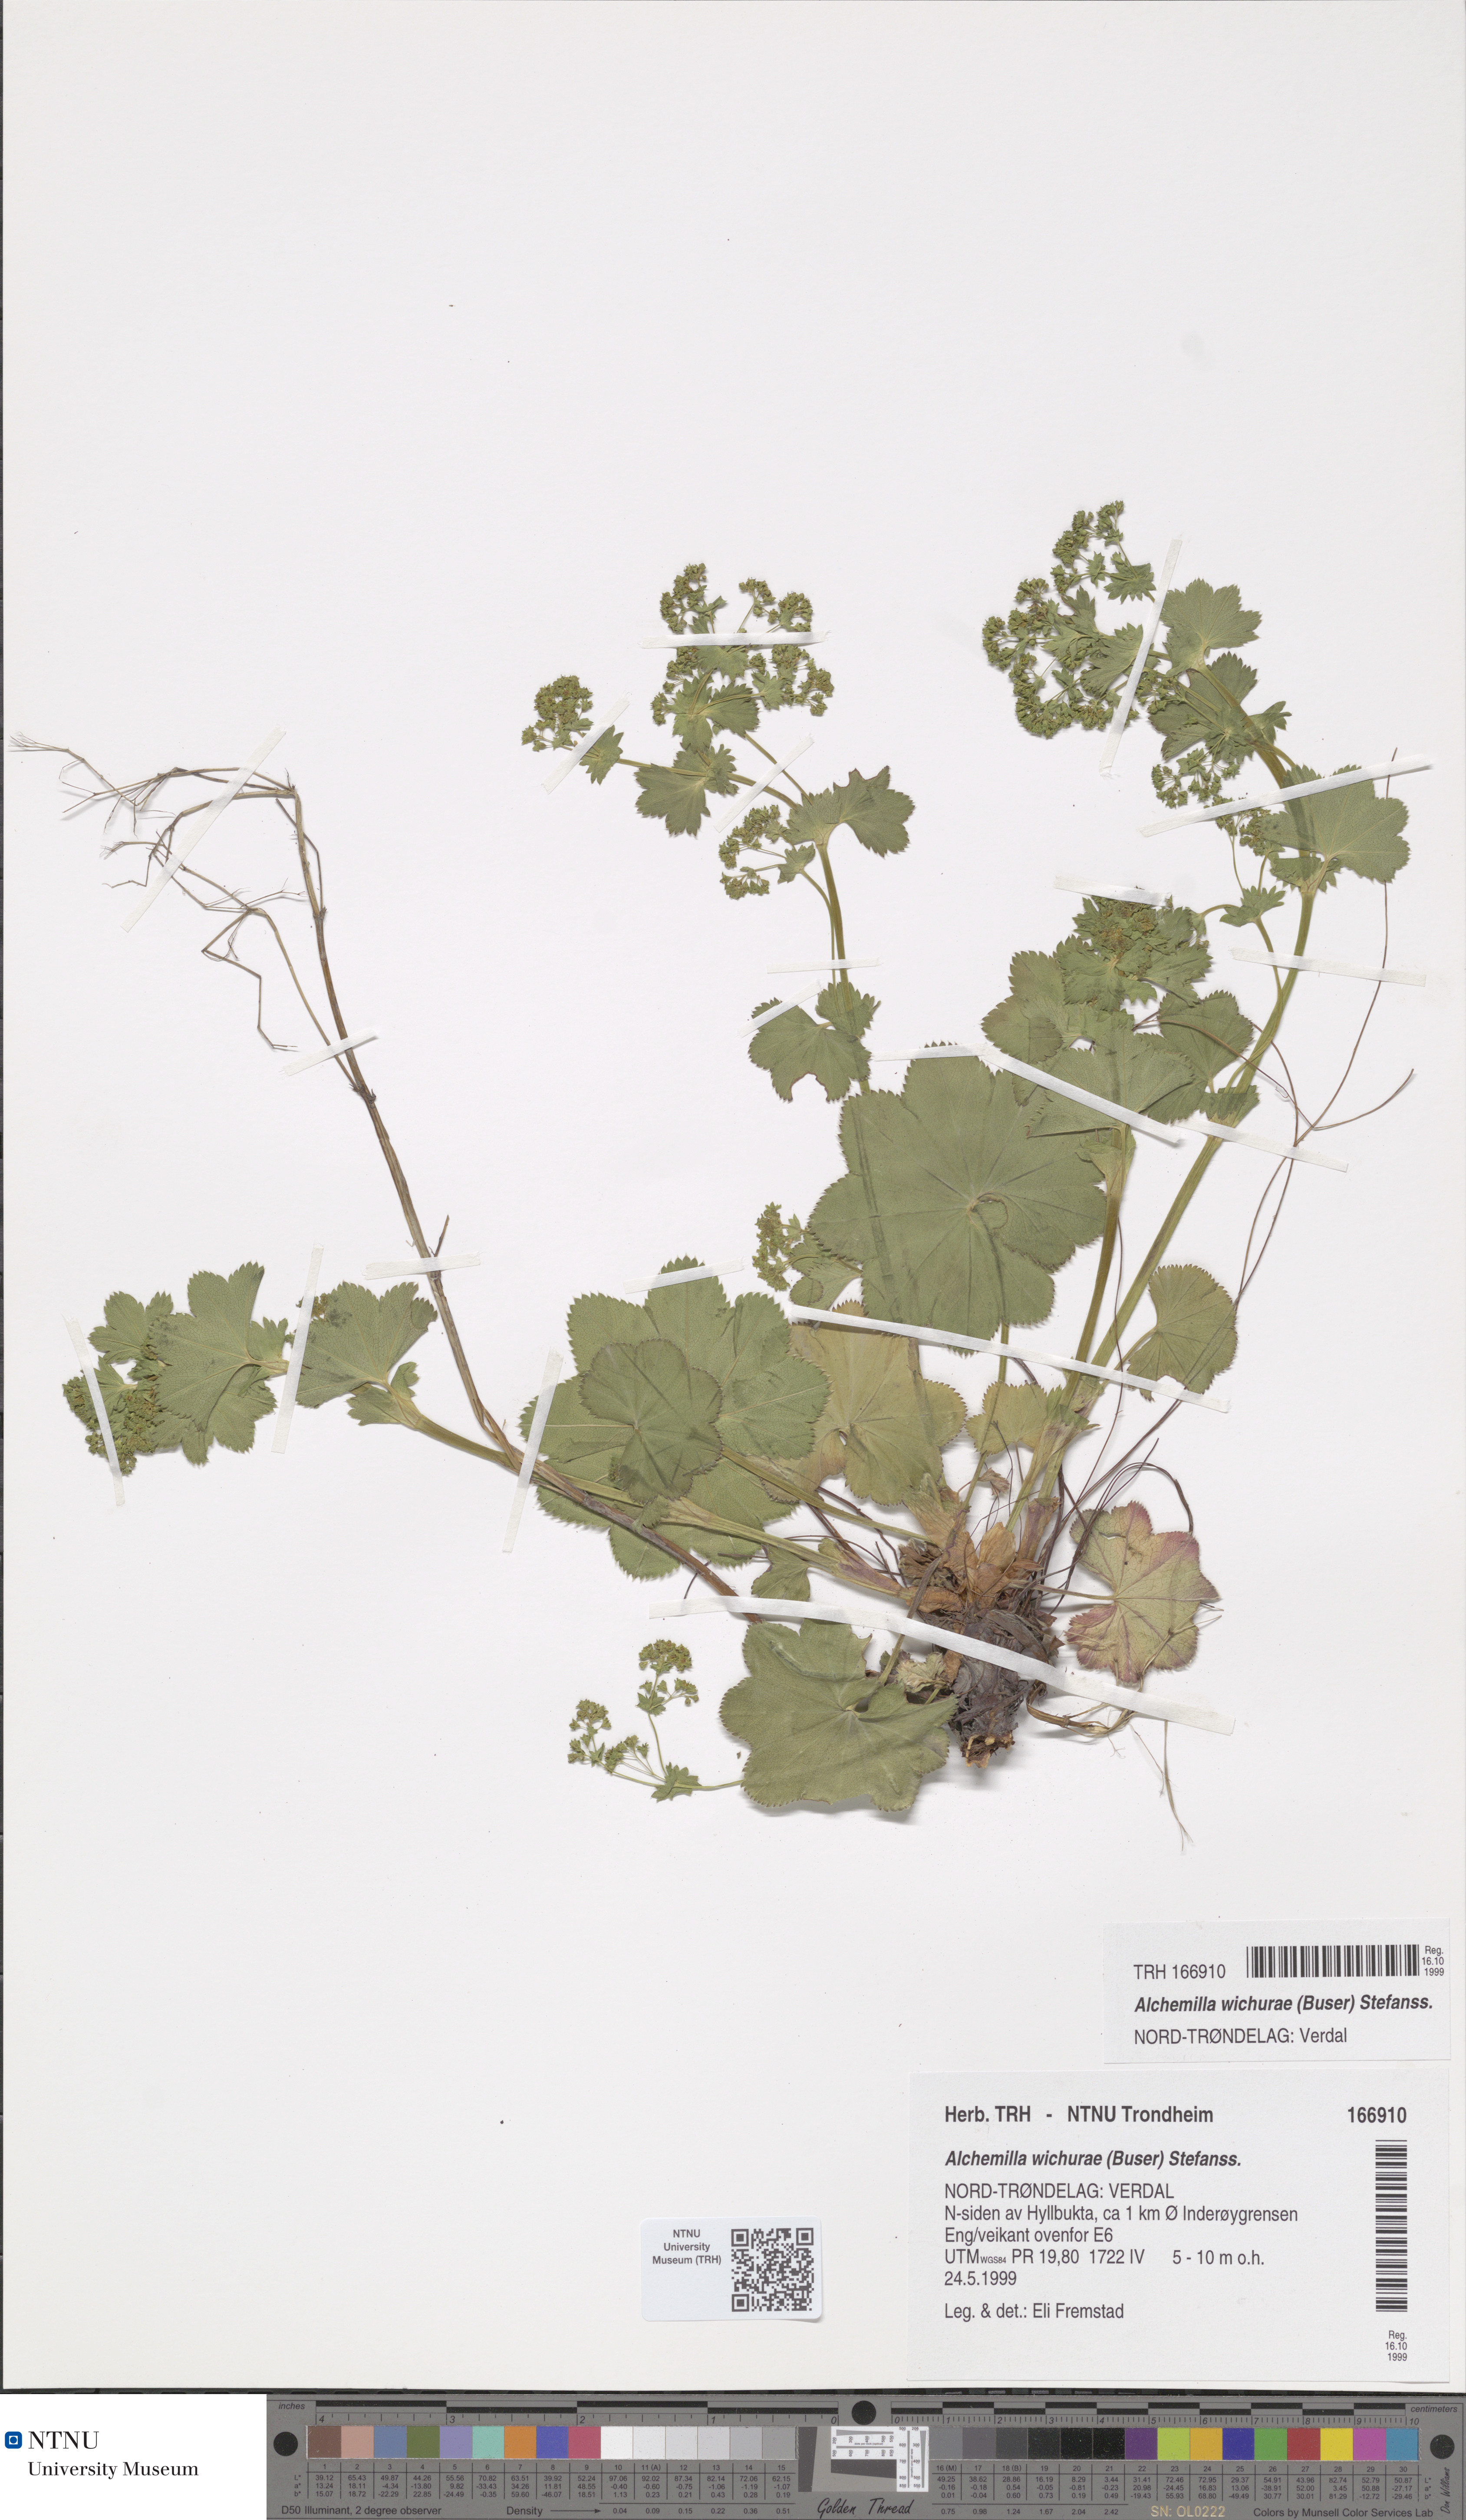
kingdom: Plantae
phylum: Tracheophyta
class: Magnoliopsida
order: Rosales
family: Rosaceae
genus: Alchemilla
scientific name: Alchemilla wichurae
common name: Rock lady's mantle
